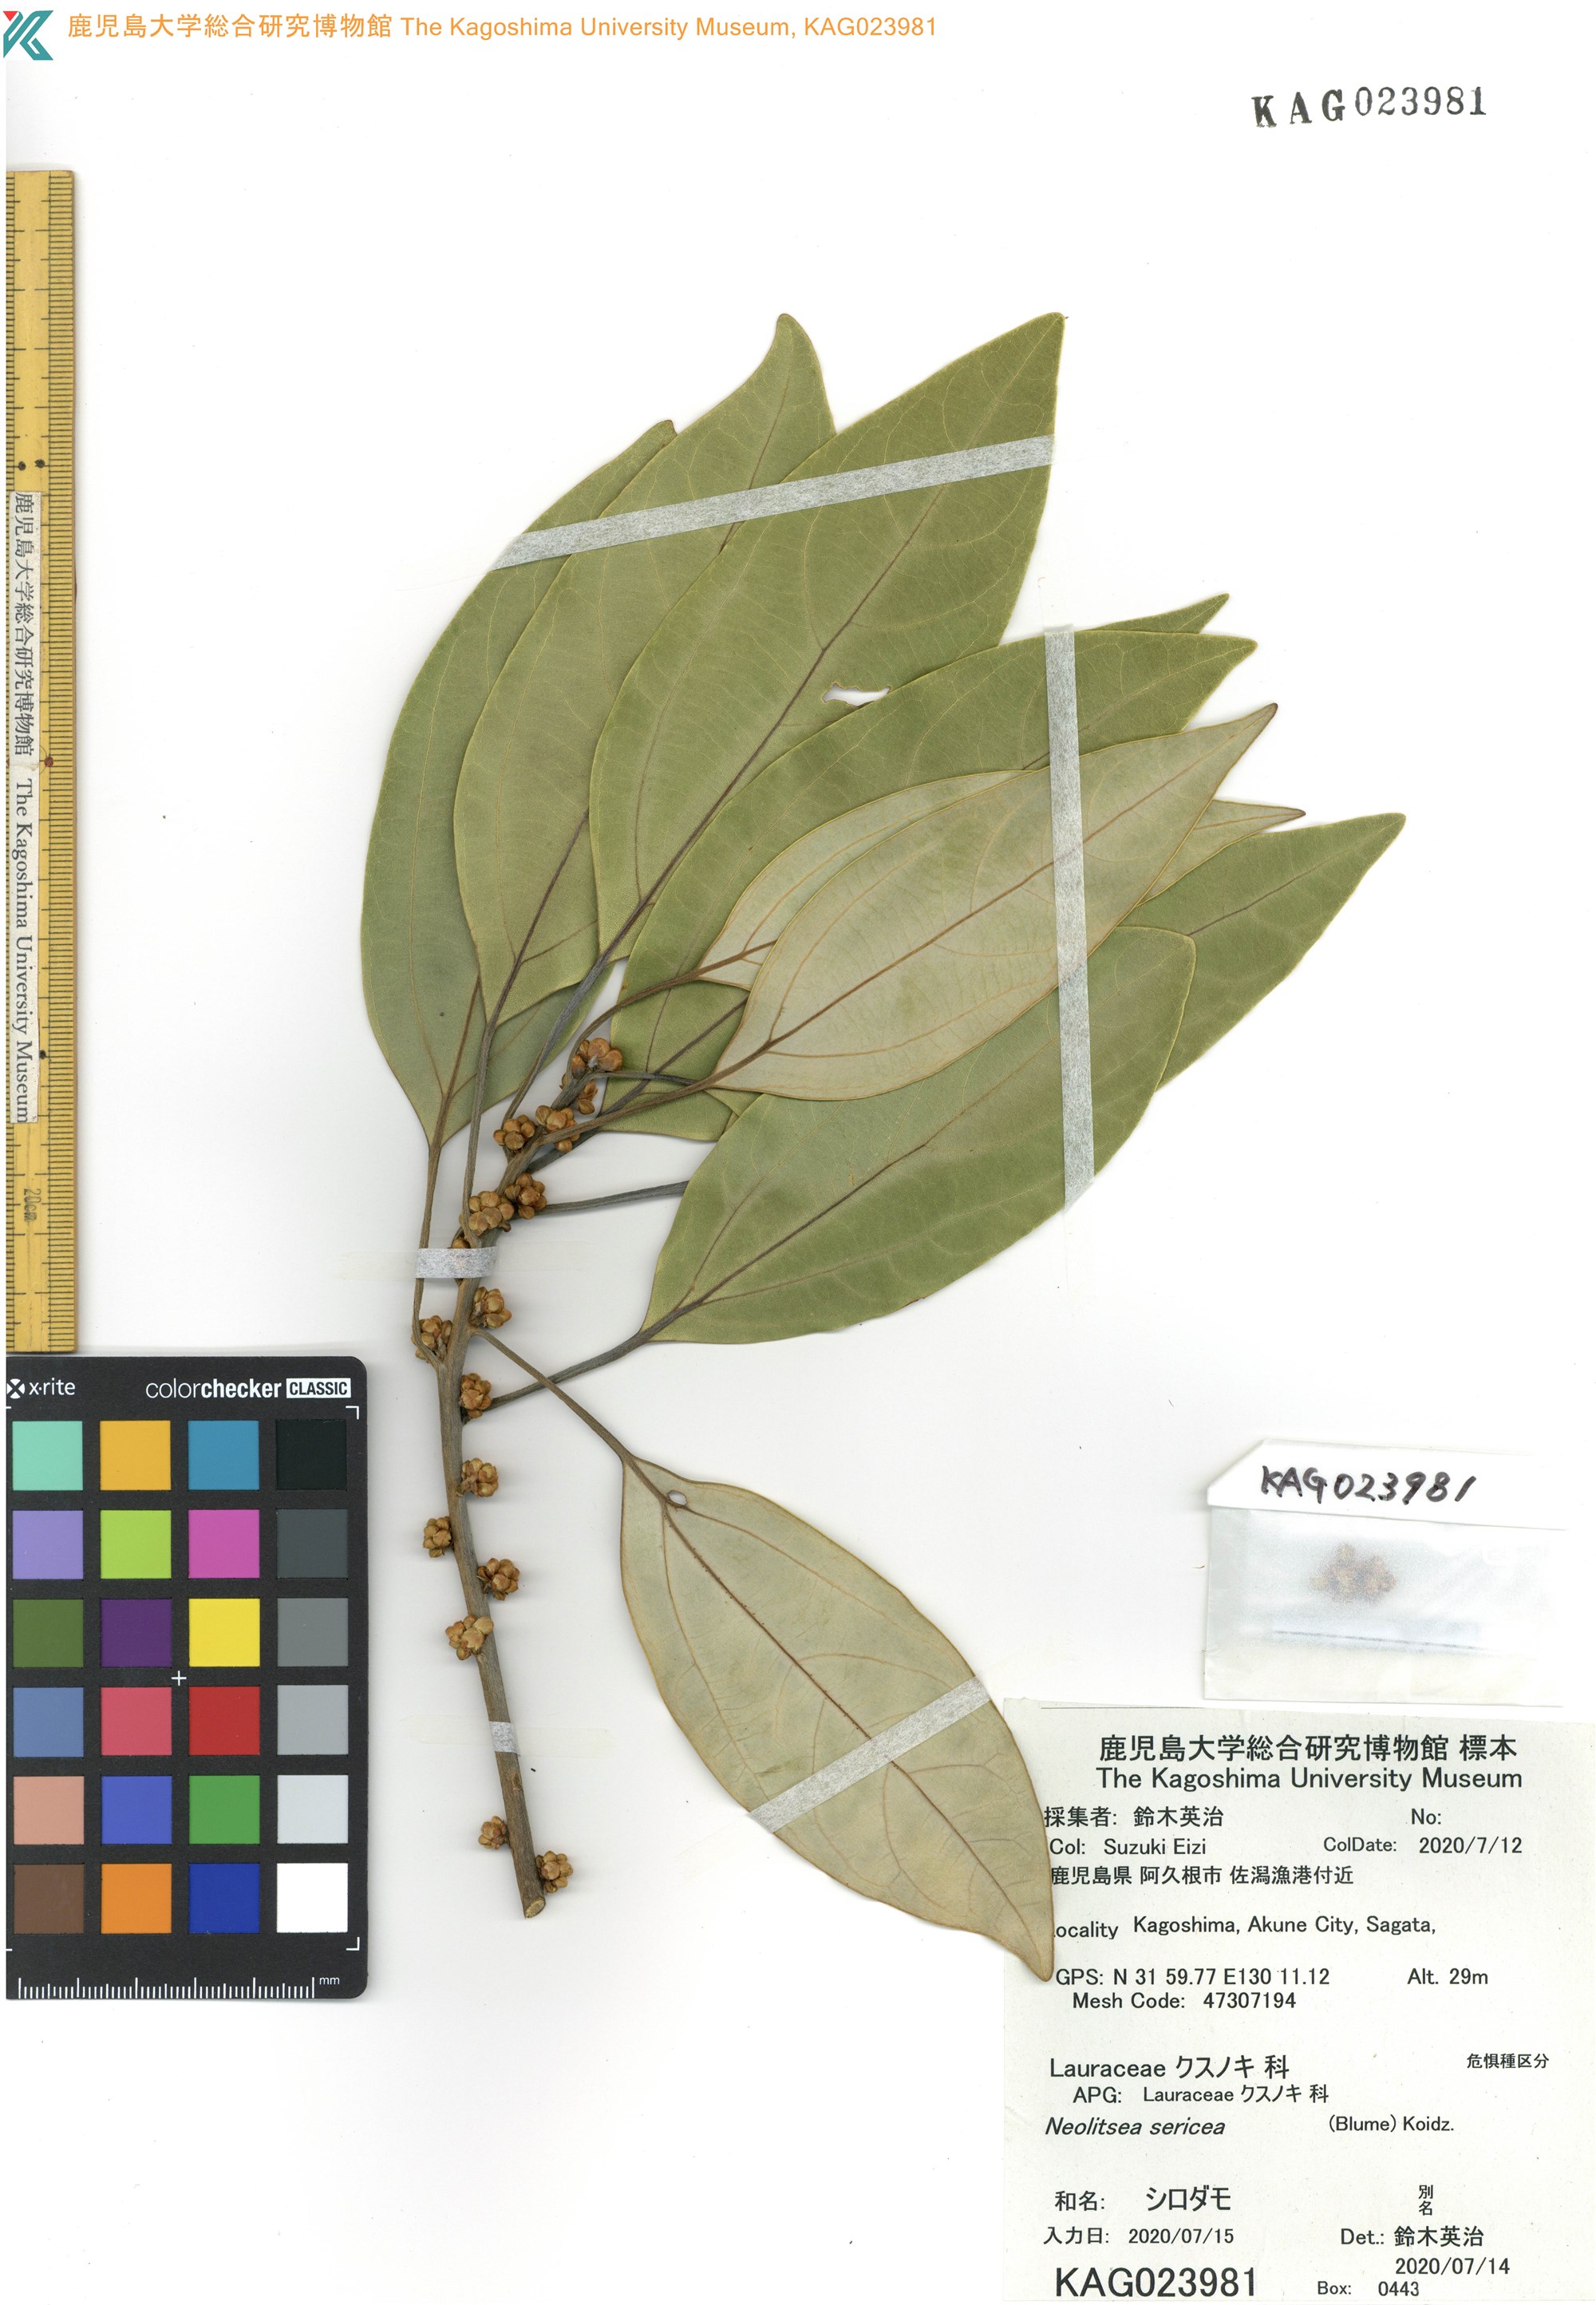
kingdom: Plantae
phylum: Tracheophyta
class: Magnoliopsida
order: Laurales
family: Lauraceae
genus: Neolitsea
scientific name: Neolitsea sericea
